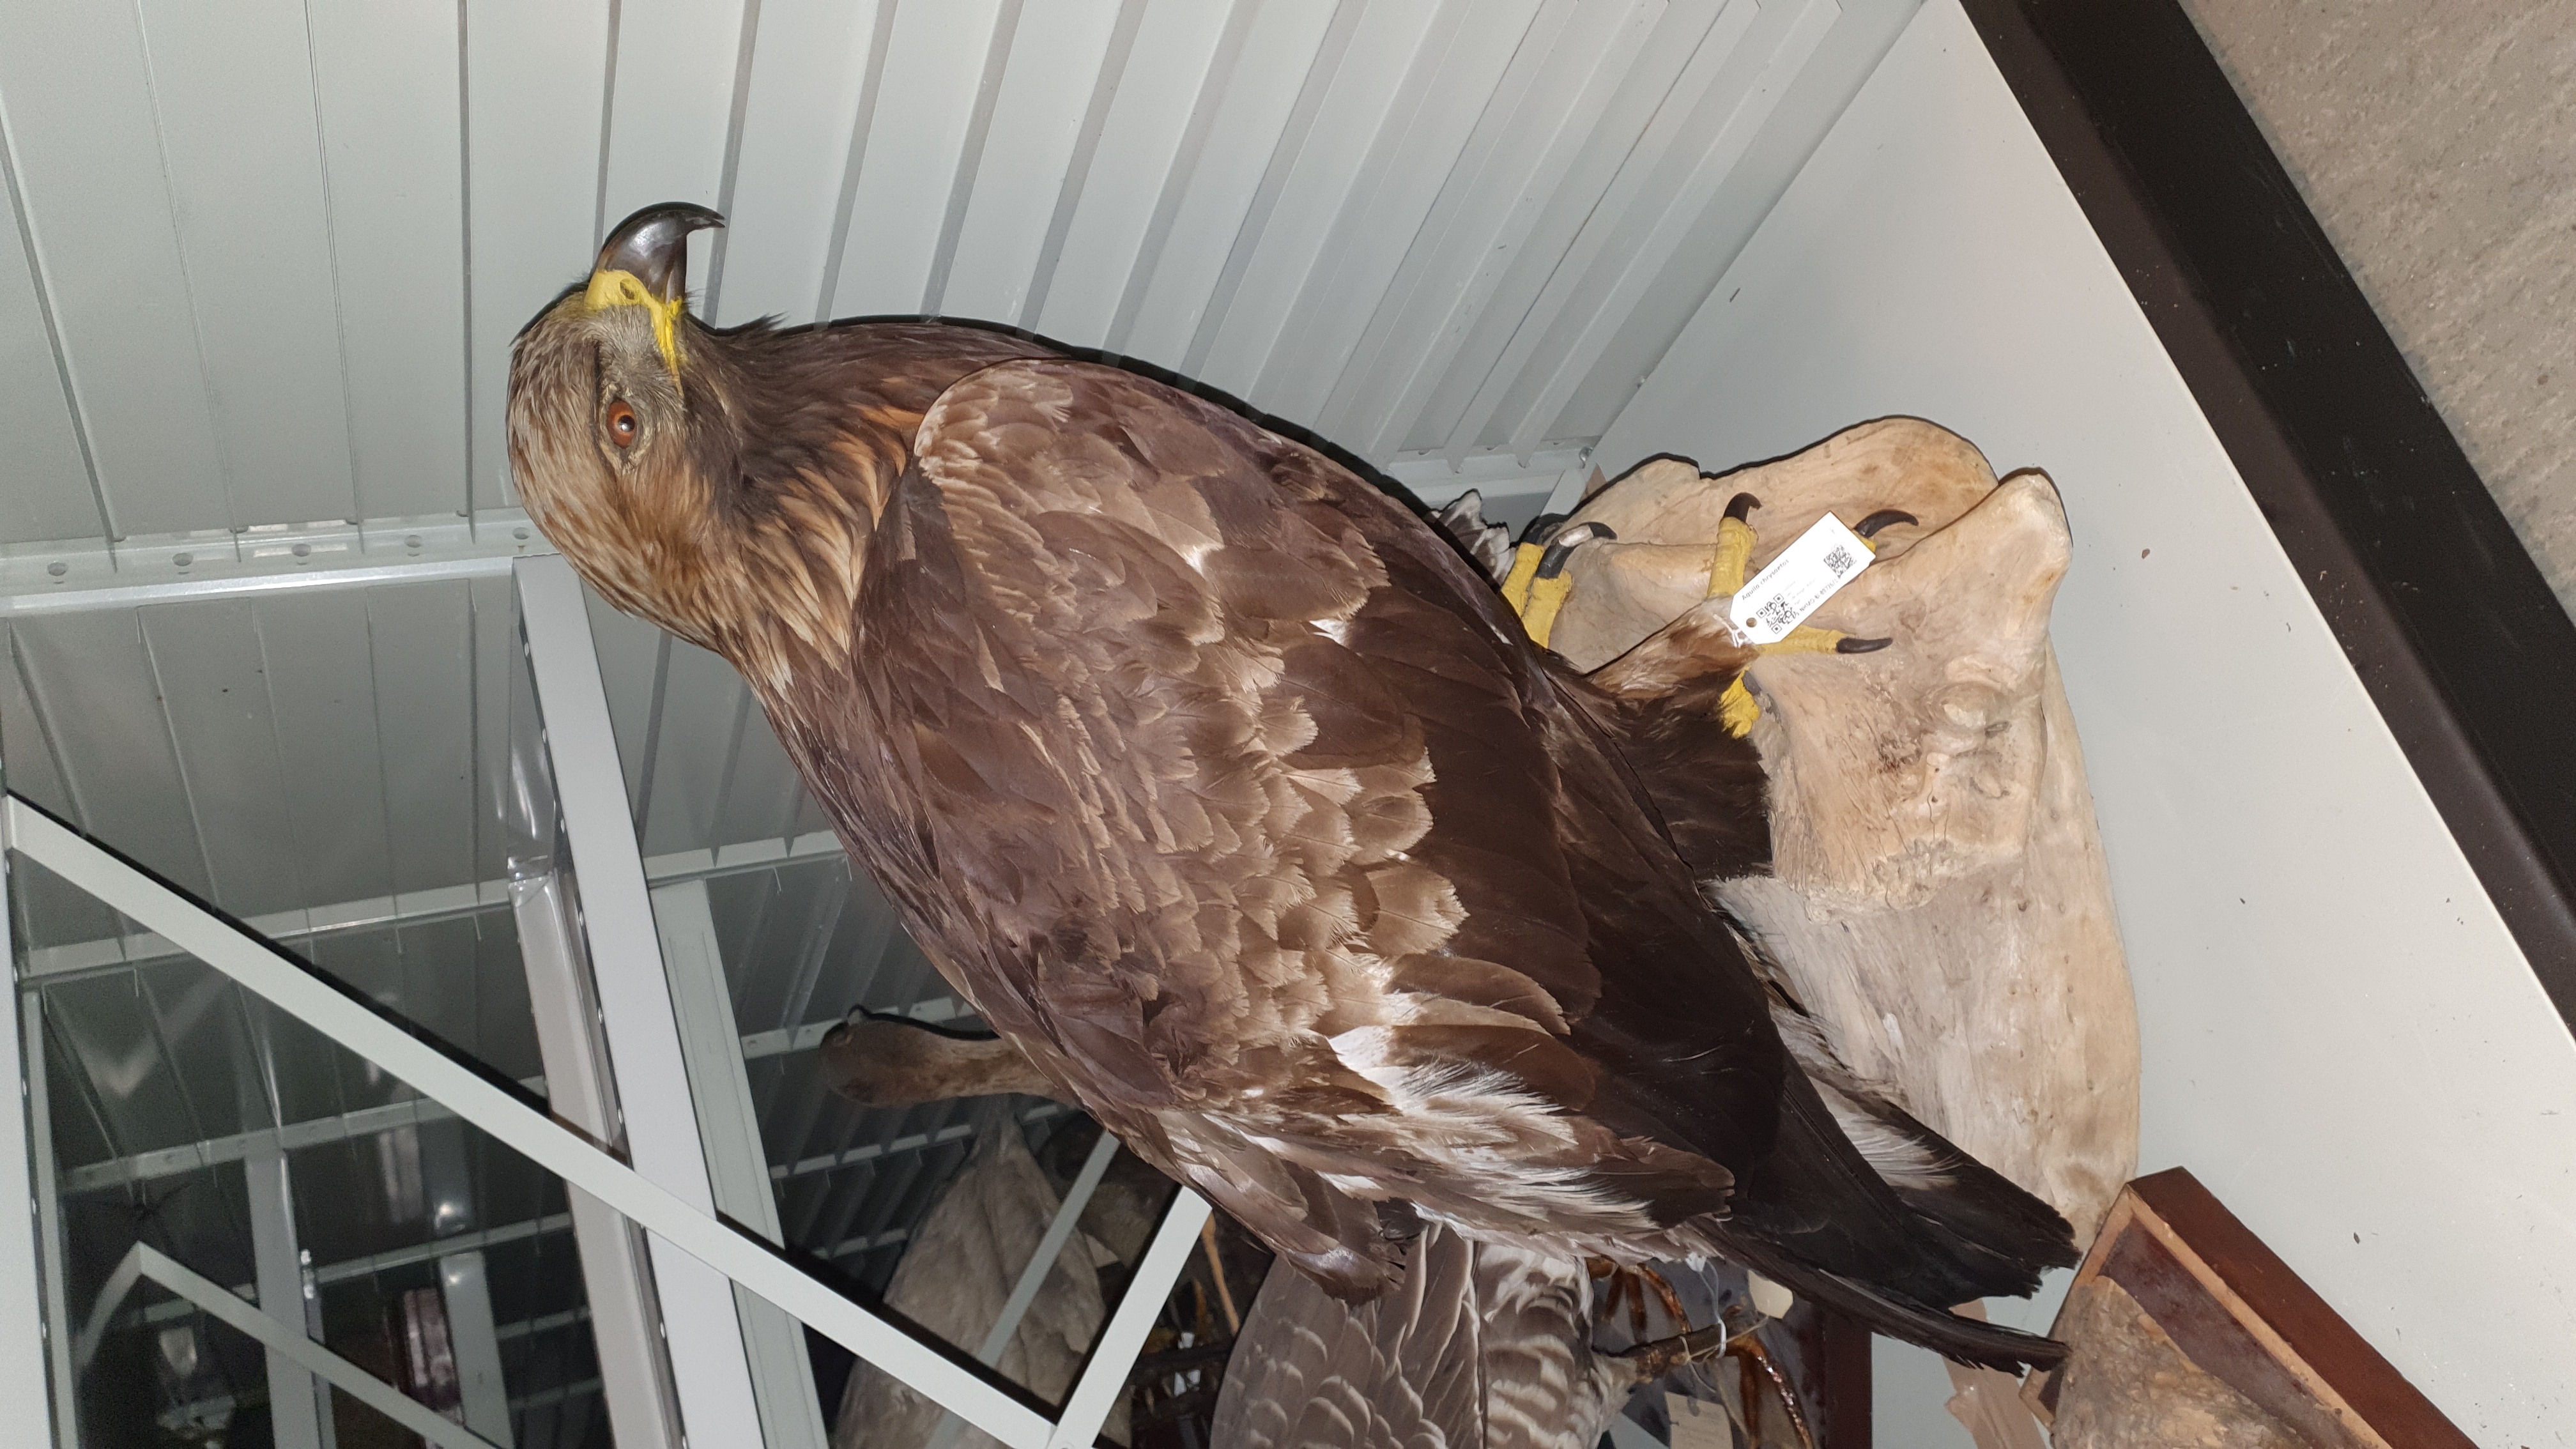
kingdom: Animalia
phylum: Chordata
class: Aves
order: Accipitriformes
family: Accipitridae
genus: Aquila
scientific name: Aquila chrysaetos
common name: Golden eagle
